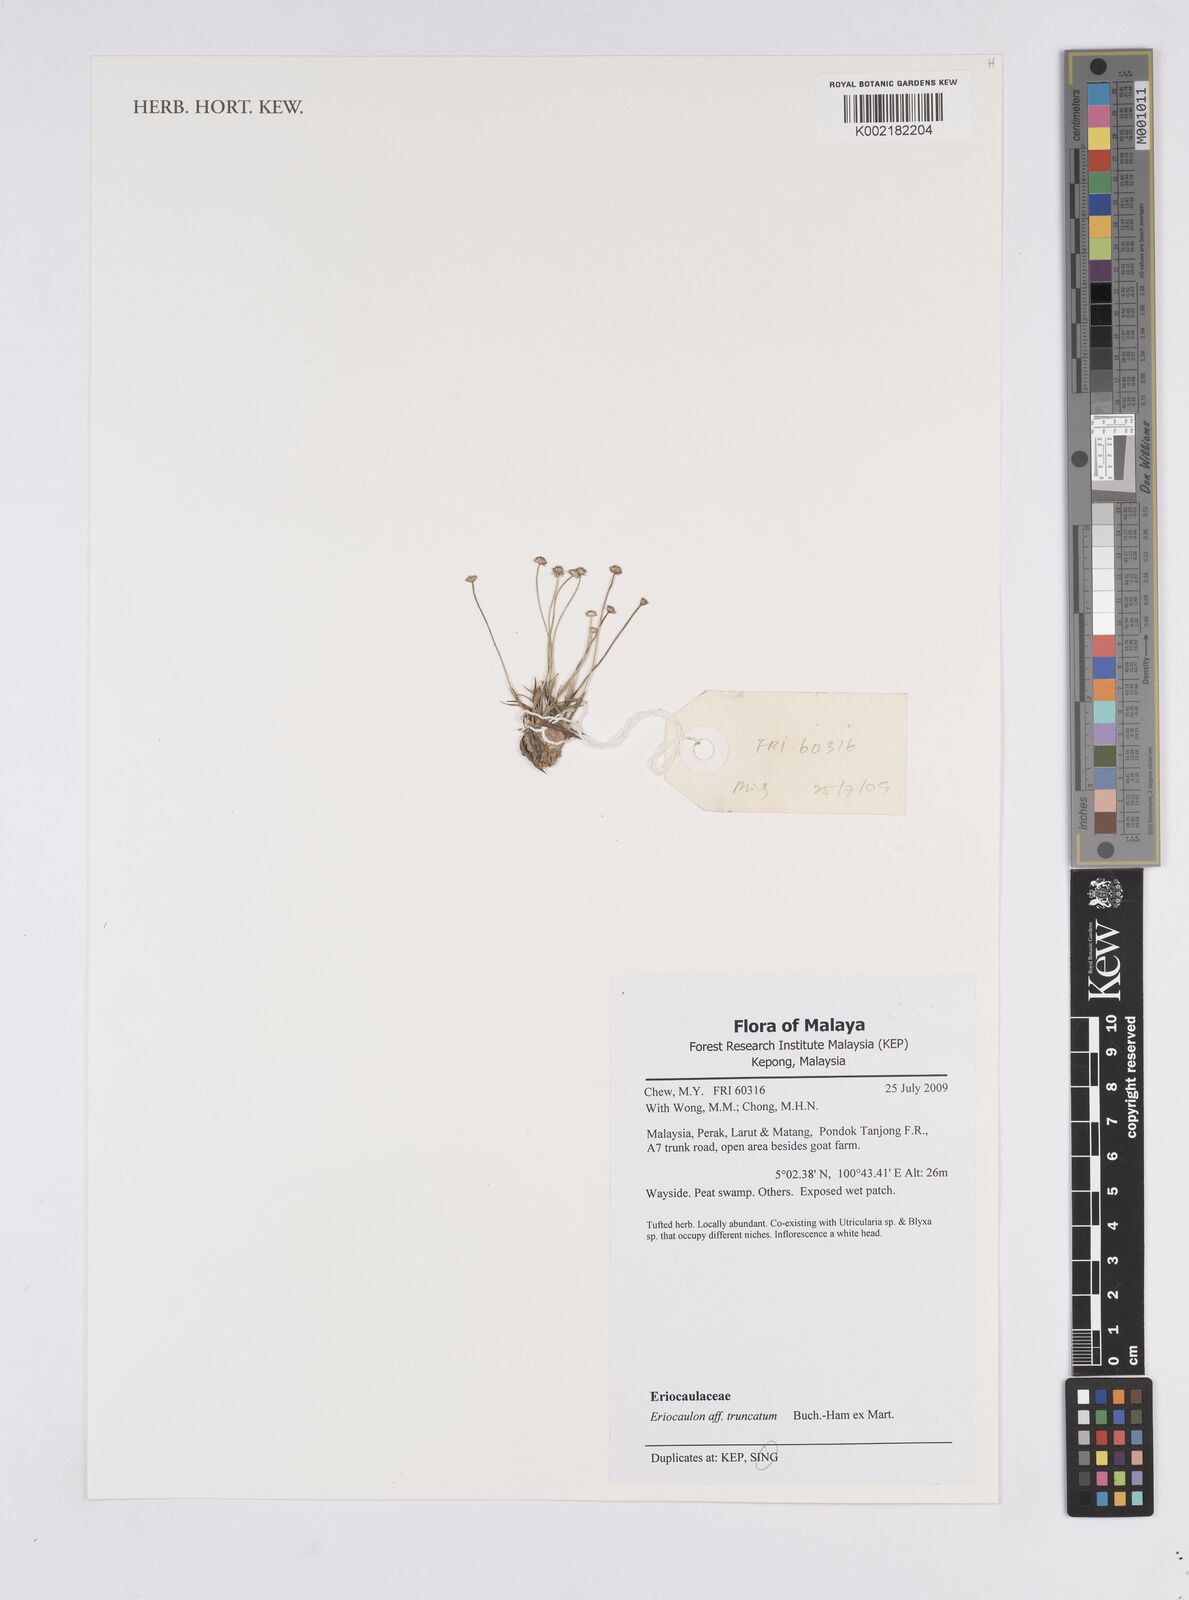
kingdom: Plantae
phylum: Tracheophyta
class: Liliopsida
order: Poales
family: Eriocaulaceae
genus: Eriocaulon
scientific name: Eriocaulon truncatum
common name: Short pipe-wort
